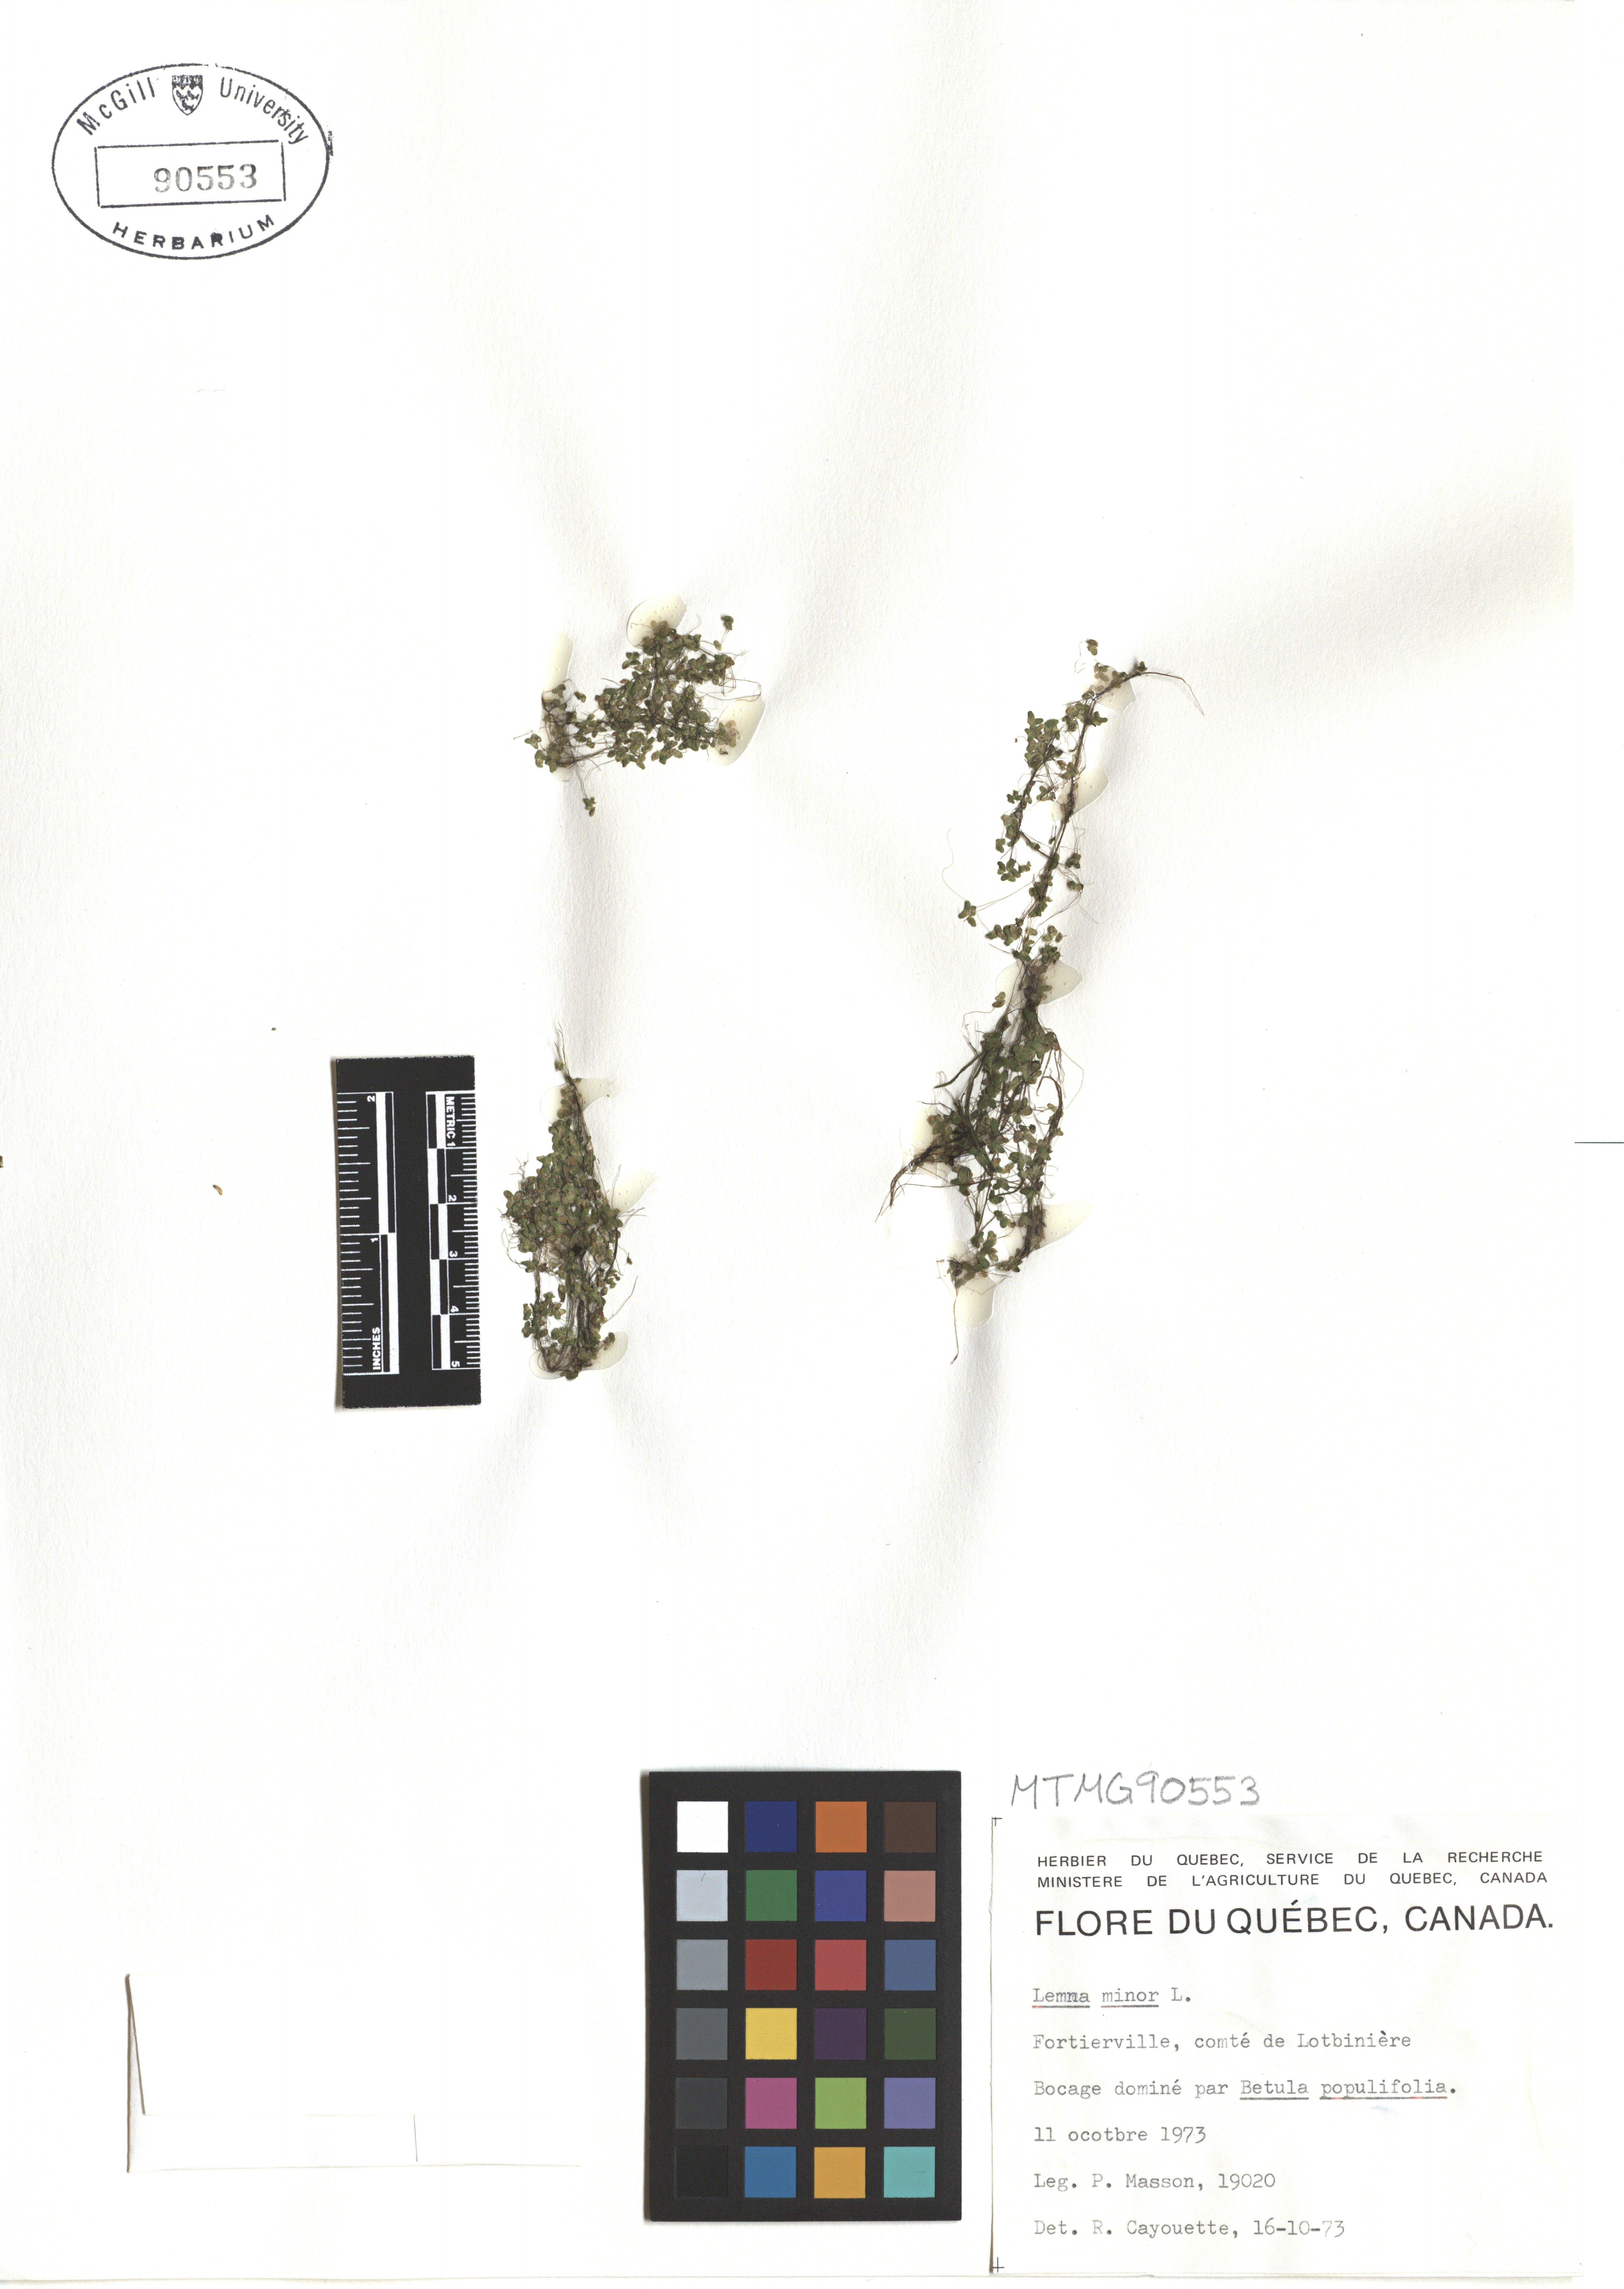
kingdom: Plantae
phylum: Tracheophyta
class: Liliopsida
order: Alismatales
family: Araceae
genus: Lemna
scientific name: Lemna minor
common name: Common duckweed
